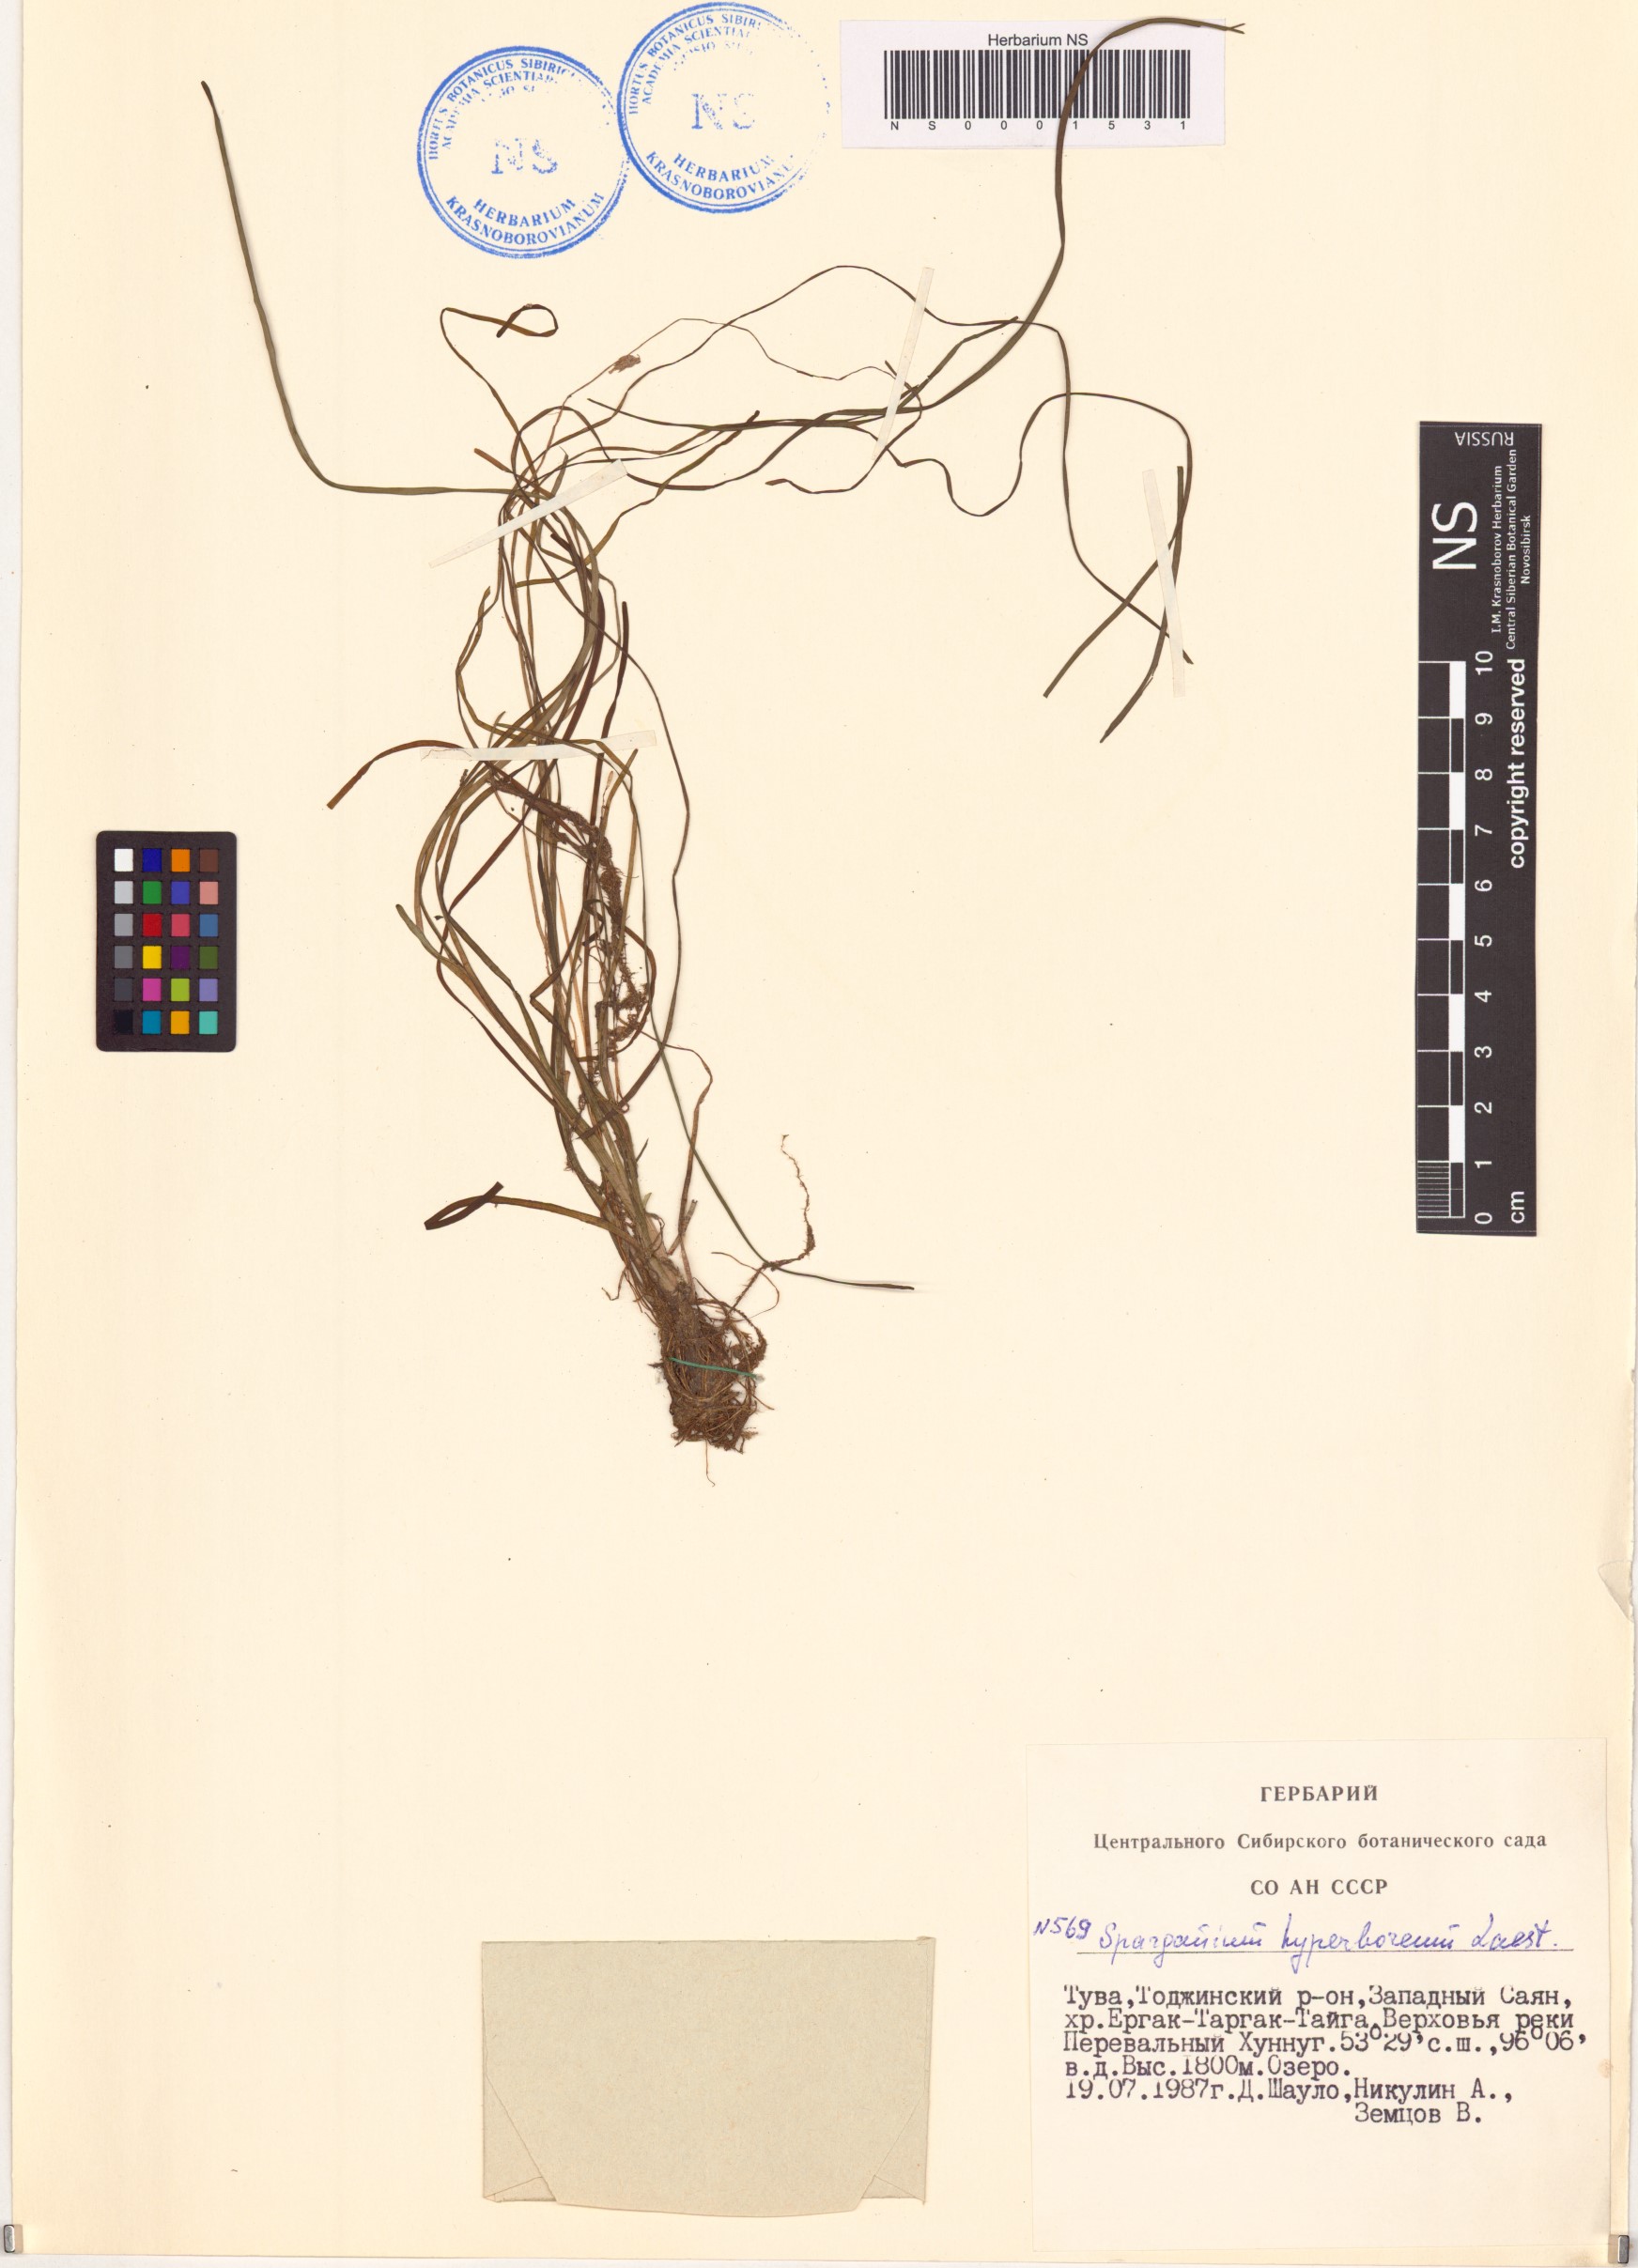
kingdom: Plantae
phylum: Tracheophyta
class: Liliopsida
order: Poales
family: Typhaceae
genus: Sparganium
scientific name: Sparganium hyperboreum
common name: Arctic burreed
